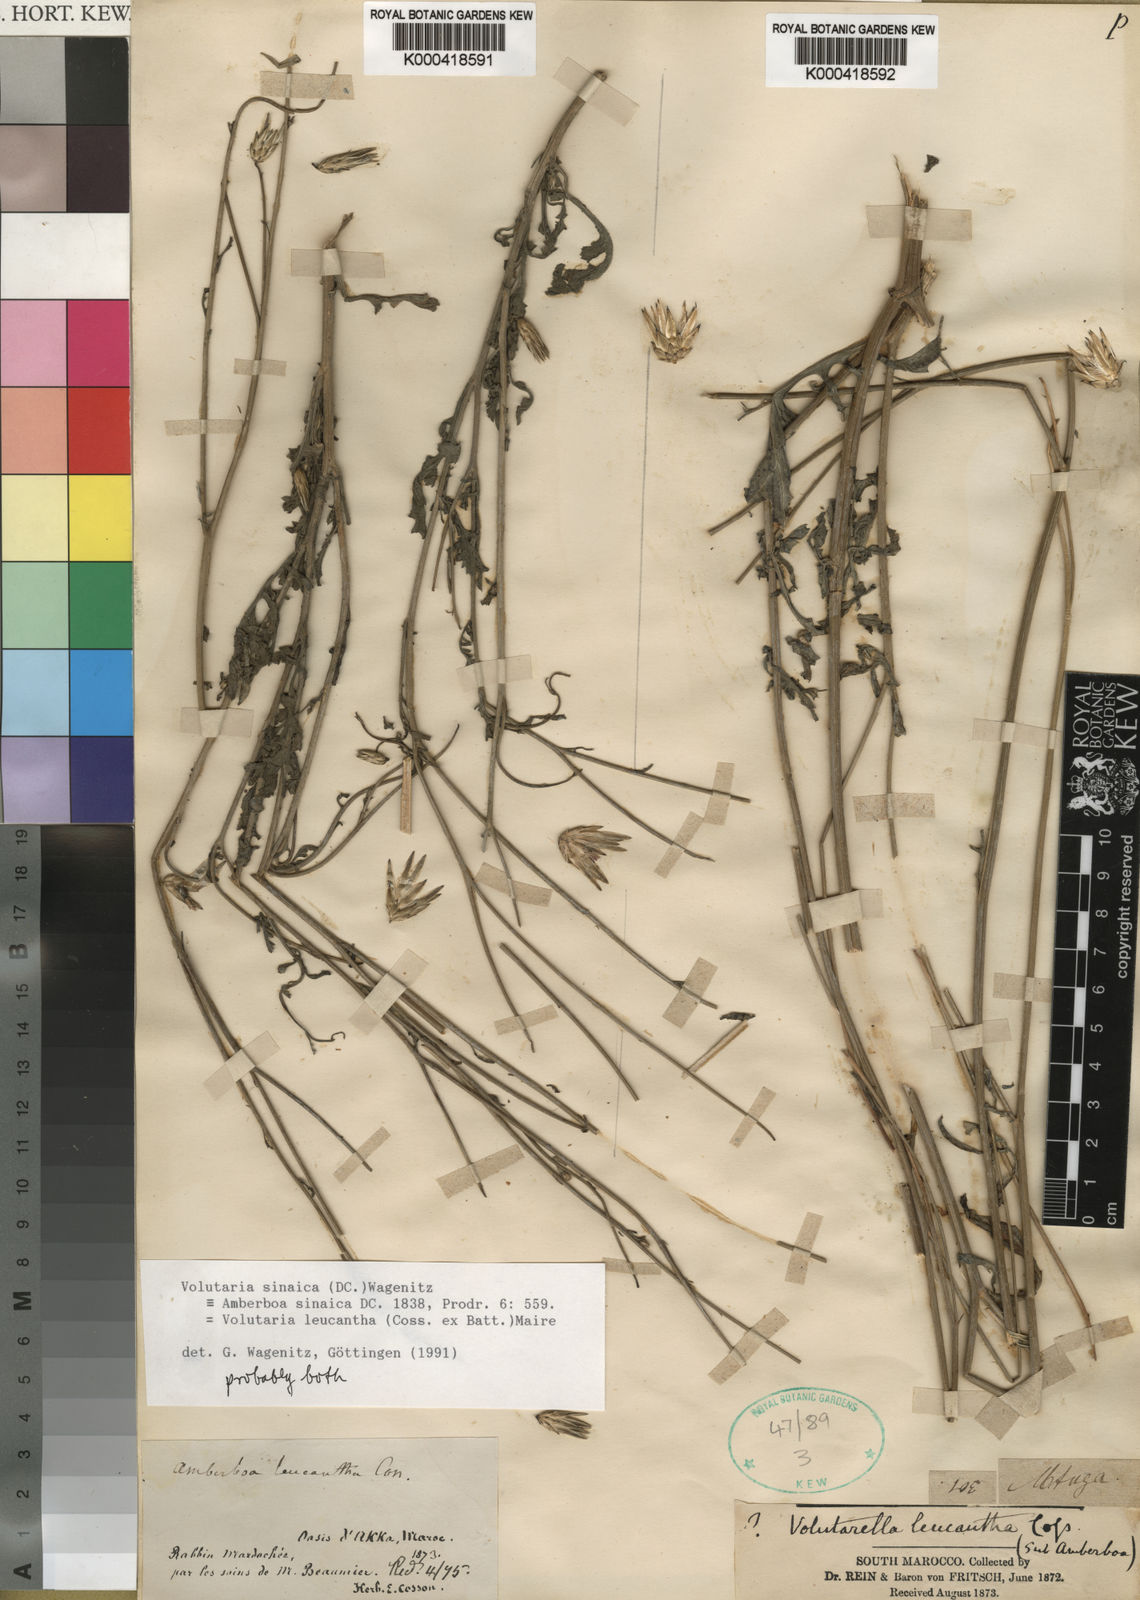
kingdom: Plantae
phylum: Tracheophyta
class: Magnoliopsida
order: Asterales
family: Asteraceae
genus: Volutaria
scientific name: Volutaria sinaica
